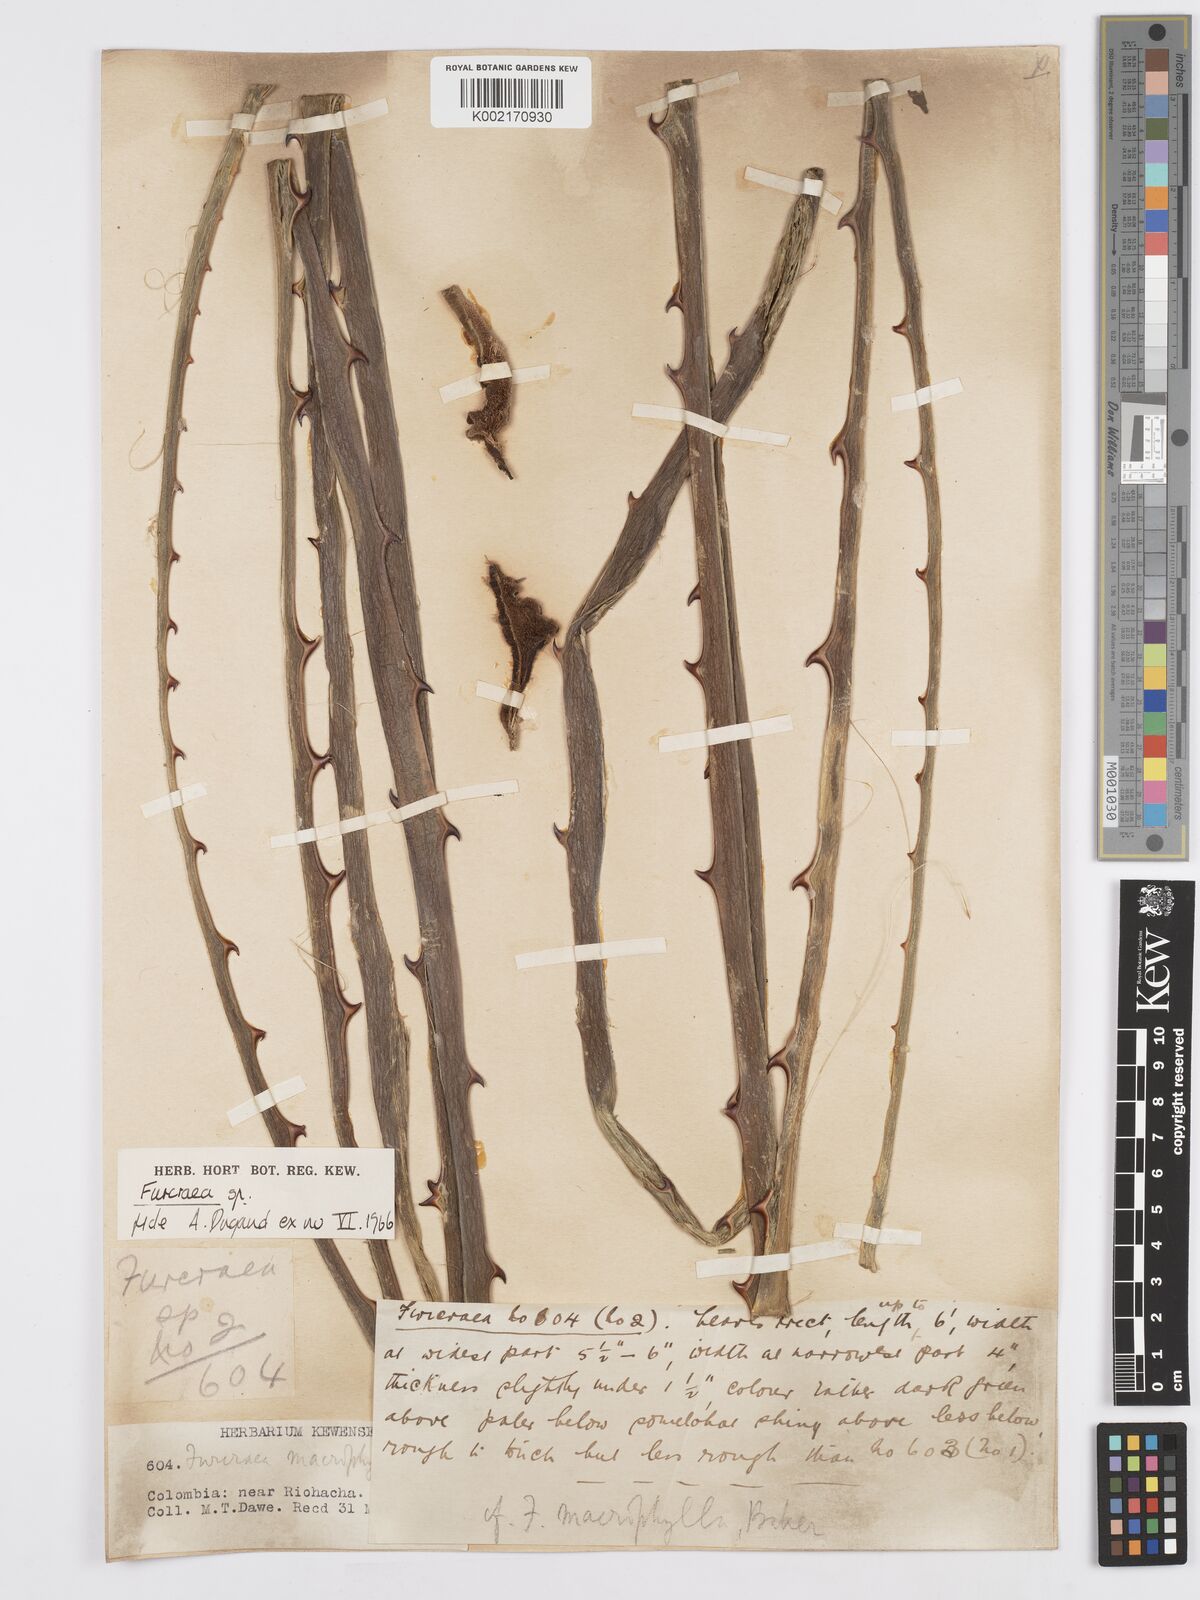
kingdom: Plantae
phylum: Tracheophyta
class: Liliopsida
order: Asparagales
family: Asparagaceae
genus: Furcraea
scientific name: Furcraea
